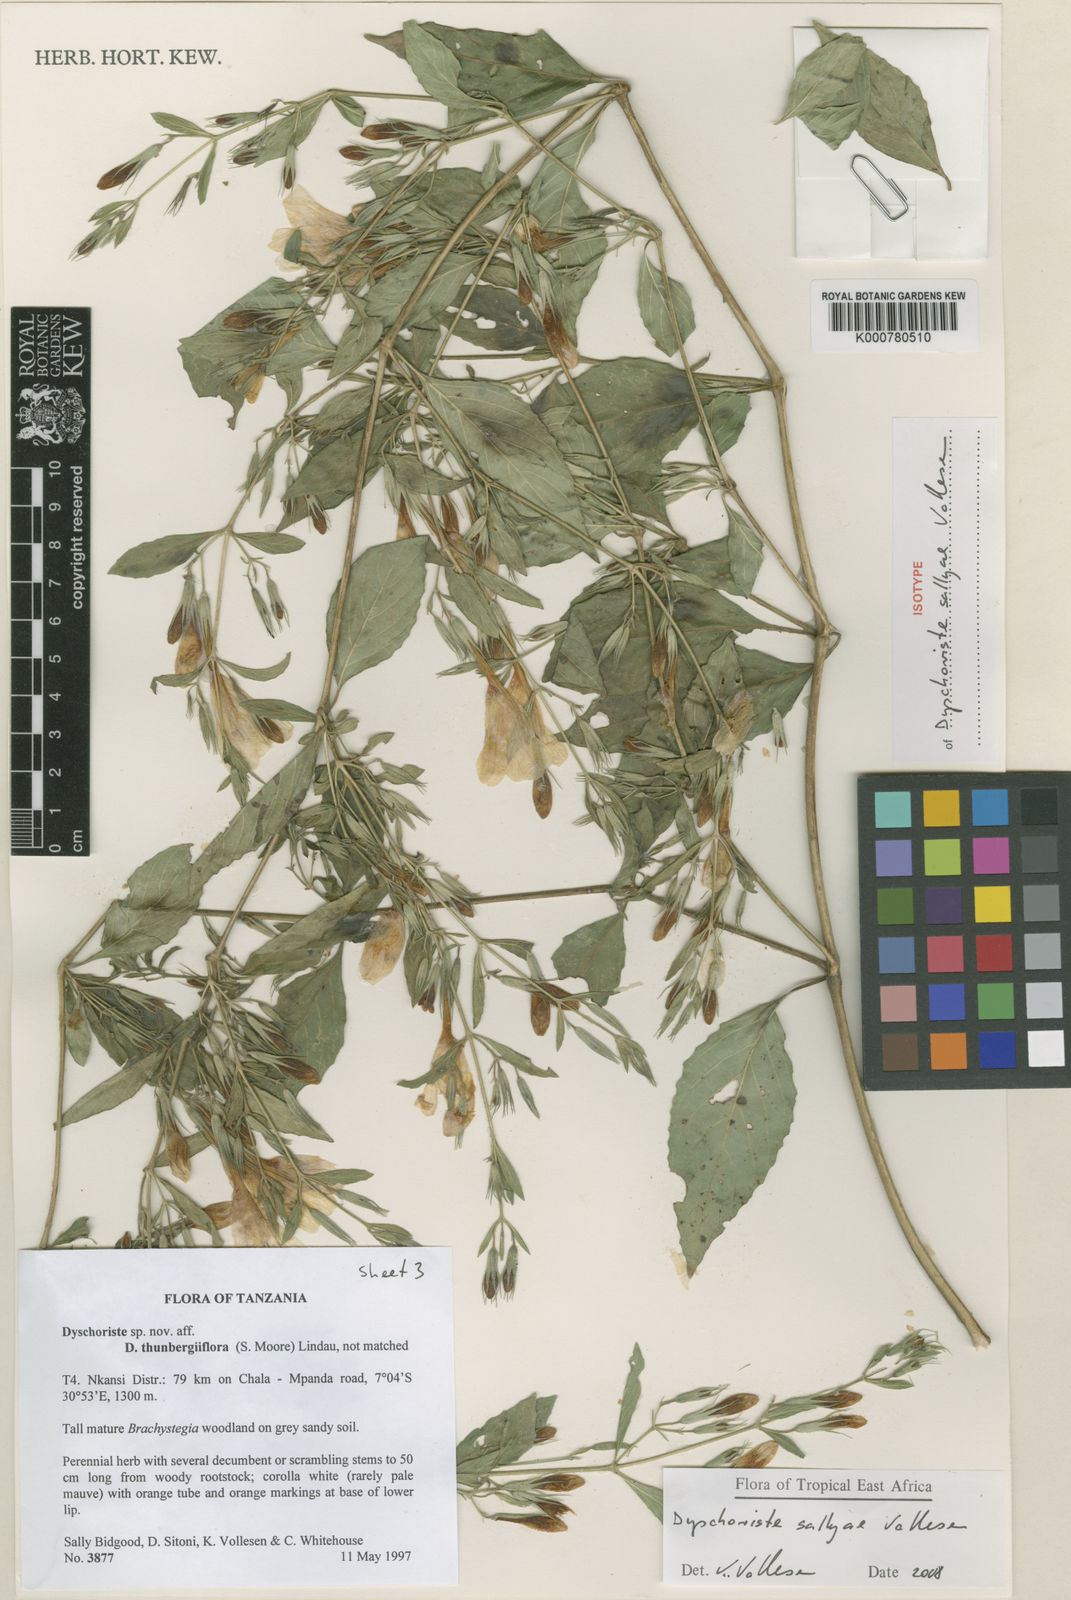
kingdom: Plantae
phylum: Tracheophyta
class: Magnoliopsida
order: Lamiales
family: Acanthaceae
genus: Dyschoriste
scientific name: Dyschoriste sallyae
